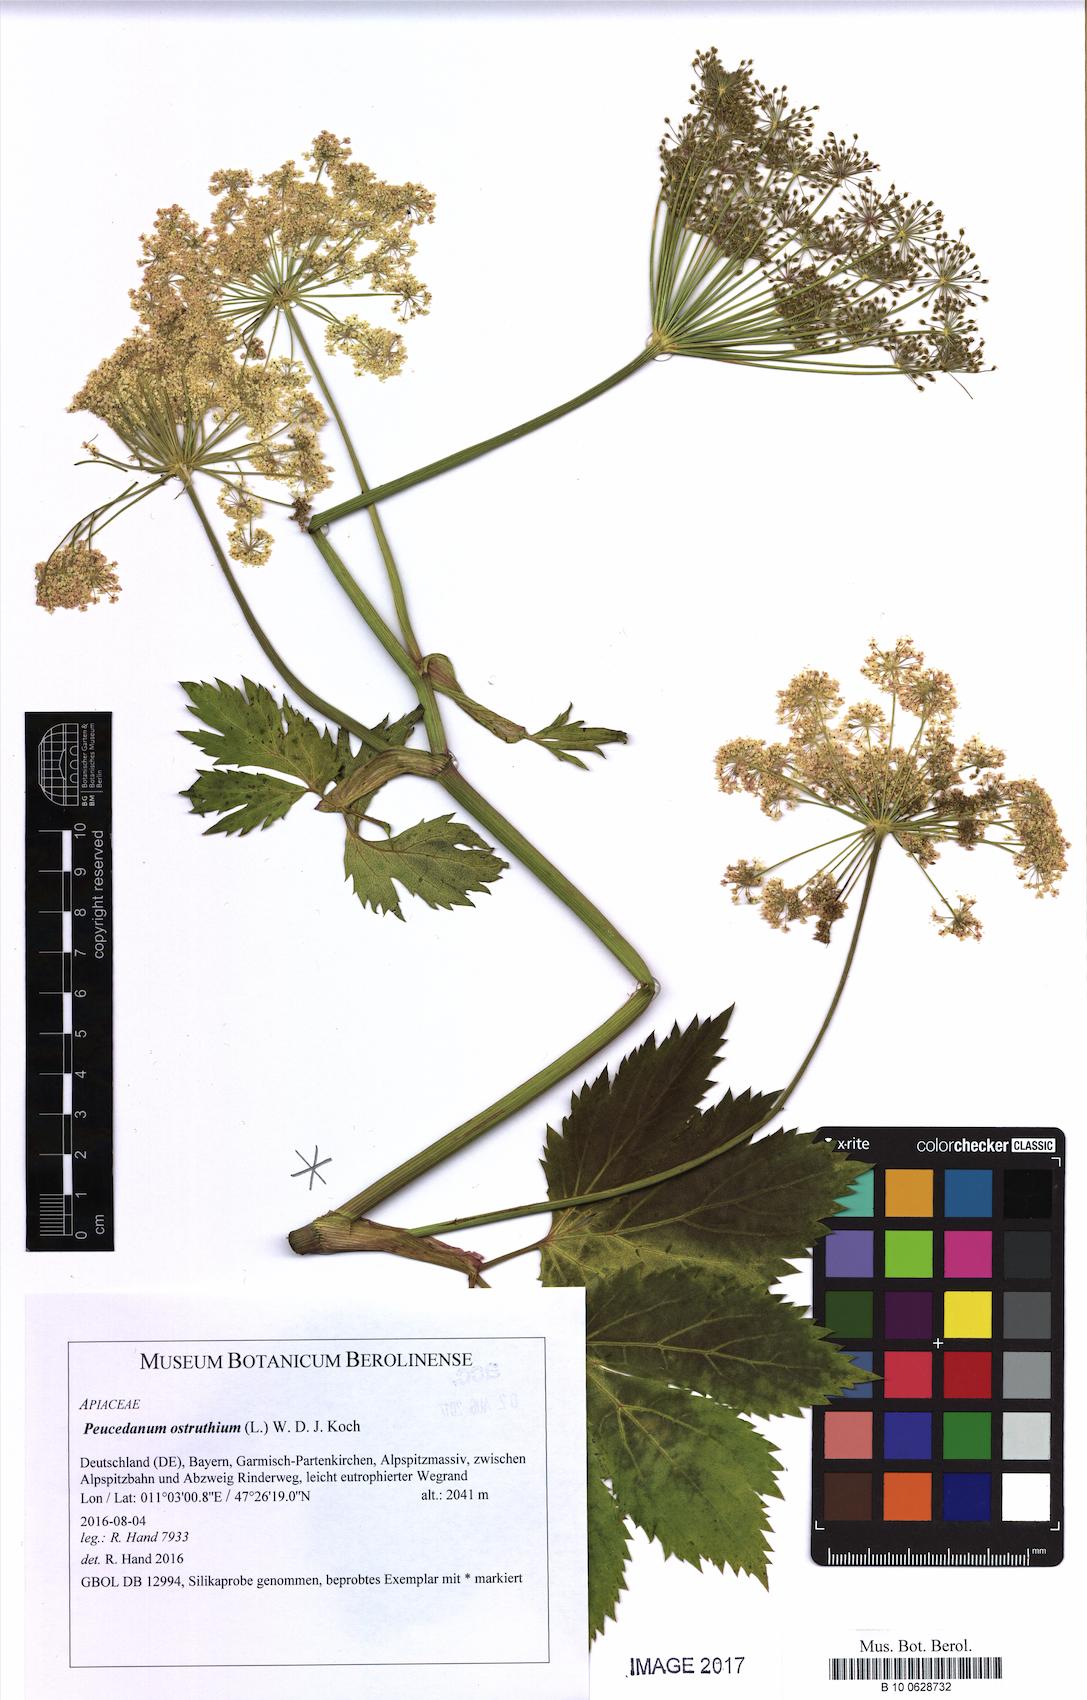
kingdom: Plantae
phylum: Tracheophyta
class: Magnoliopsida
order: Apiales
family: Apiaceae
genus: Imperatoria
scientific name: Imperatoria ostruthium
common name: Masterwort
